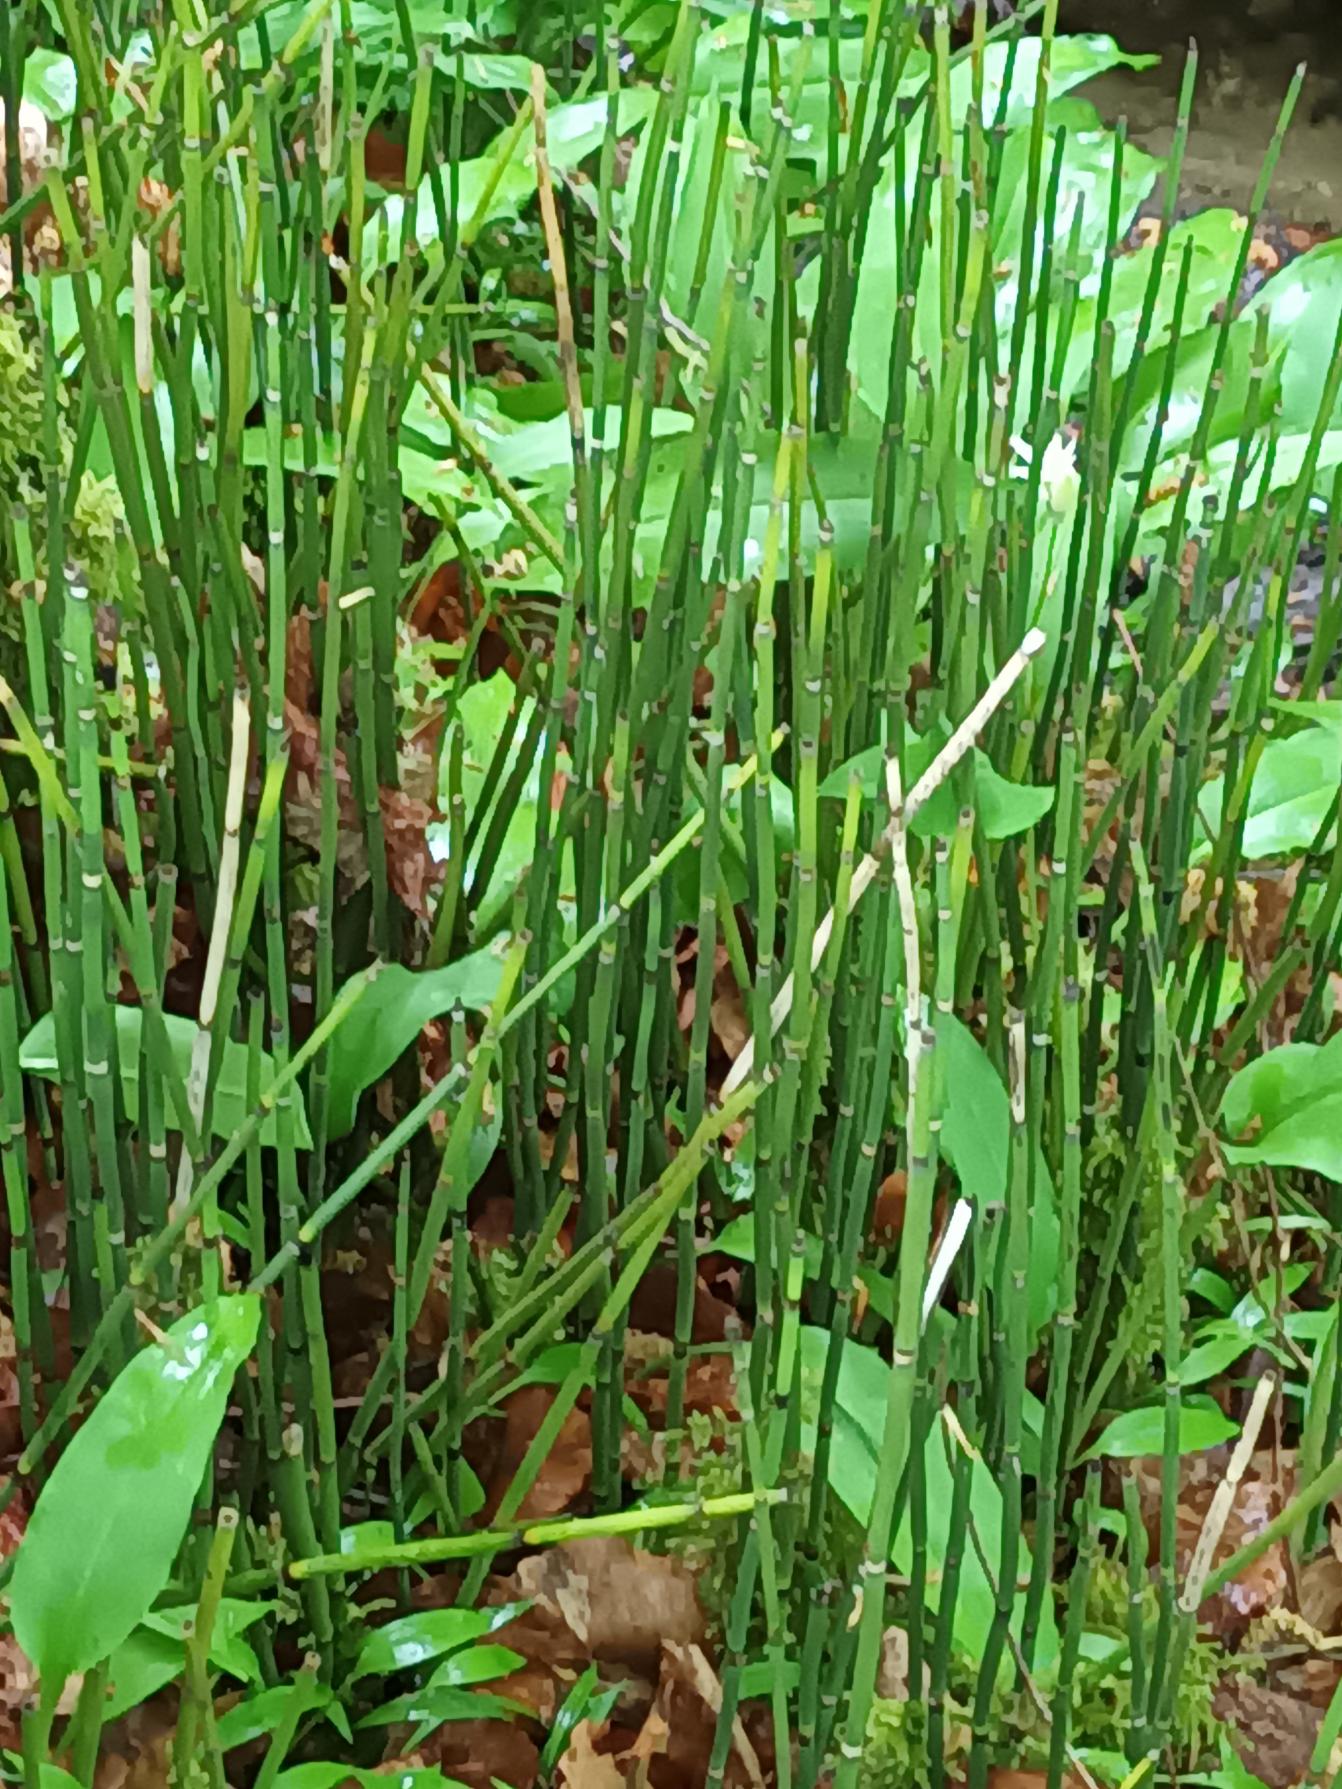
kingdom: Plantae
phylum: Tracheophyta
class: Polypodiopsida
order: Equisetales
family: Equisetaceae
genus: Equisetum
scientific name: Equisetum hyemale
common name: Skavgræs
